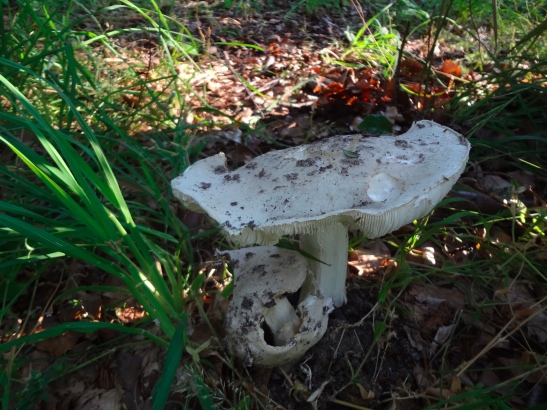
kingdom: Fungi
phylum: Basidiomycota
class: Agaricomycetes
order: Agaricales
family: Amanitaceae
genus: Amanita
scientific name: Amanita
